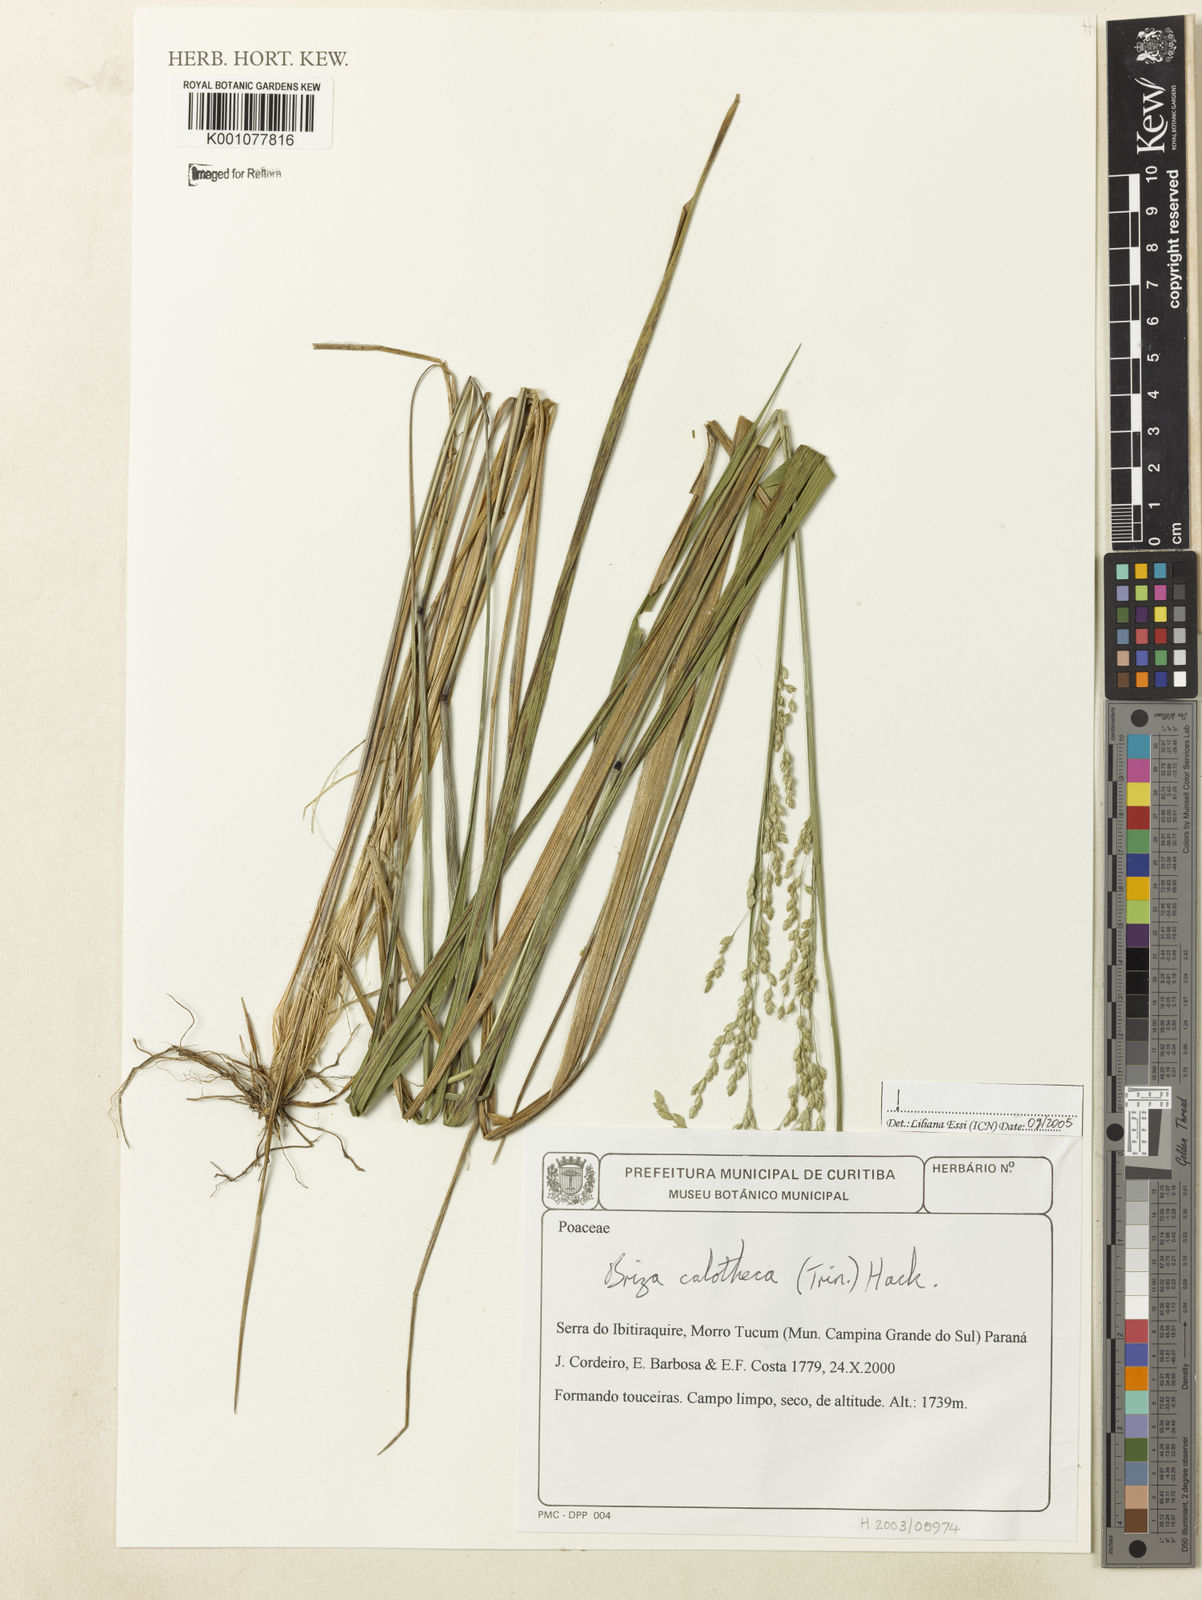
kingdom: Plantae
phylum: Tracheophyta
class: Liliopsida
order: Poales
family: Poaceae
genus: Poidium
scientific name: Poidium calotheca
